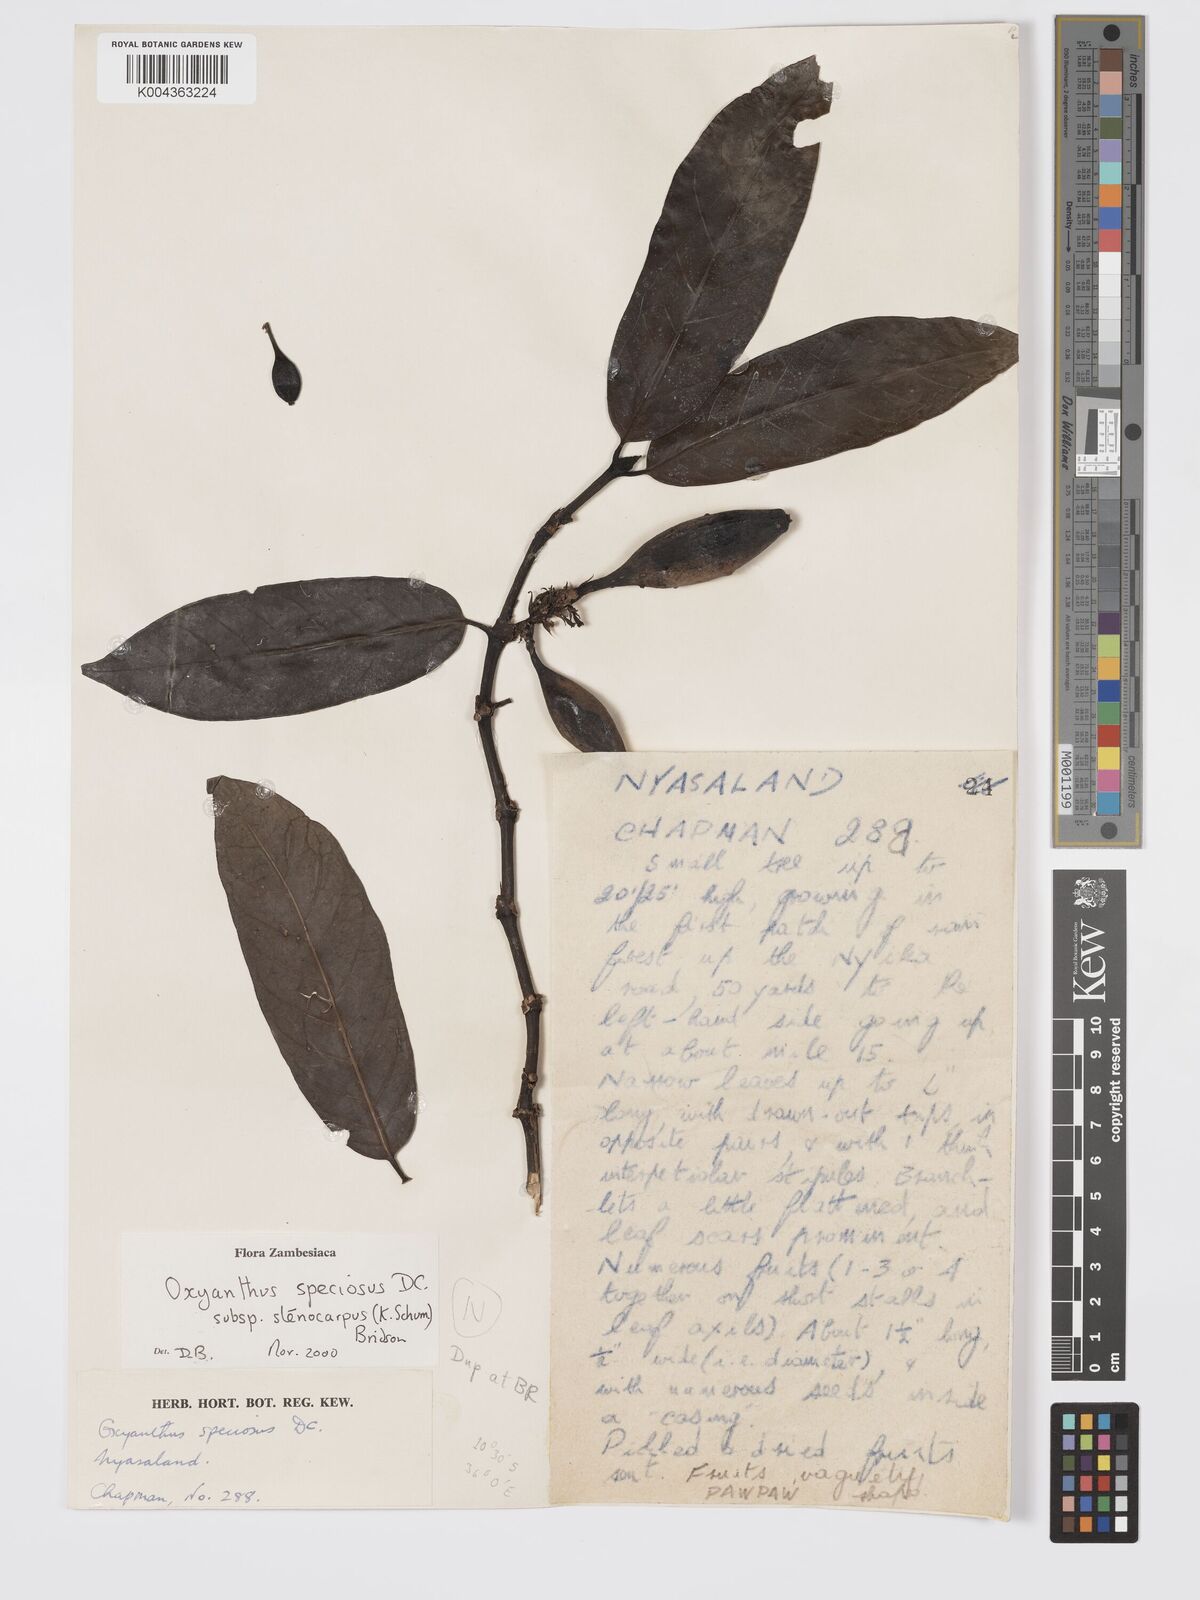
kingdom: Plantae
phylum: Tracheophyta
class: Magnoliopsida
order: Gentianales
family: Rubiaceae
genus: Oxyanthus
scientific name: Oxyanthus speciosus
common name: Whipstick loquat
